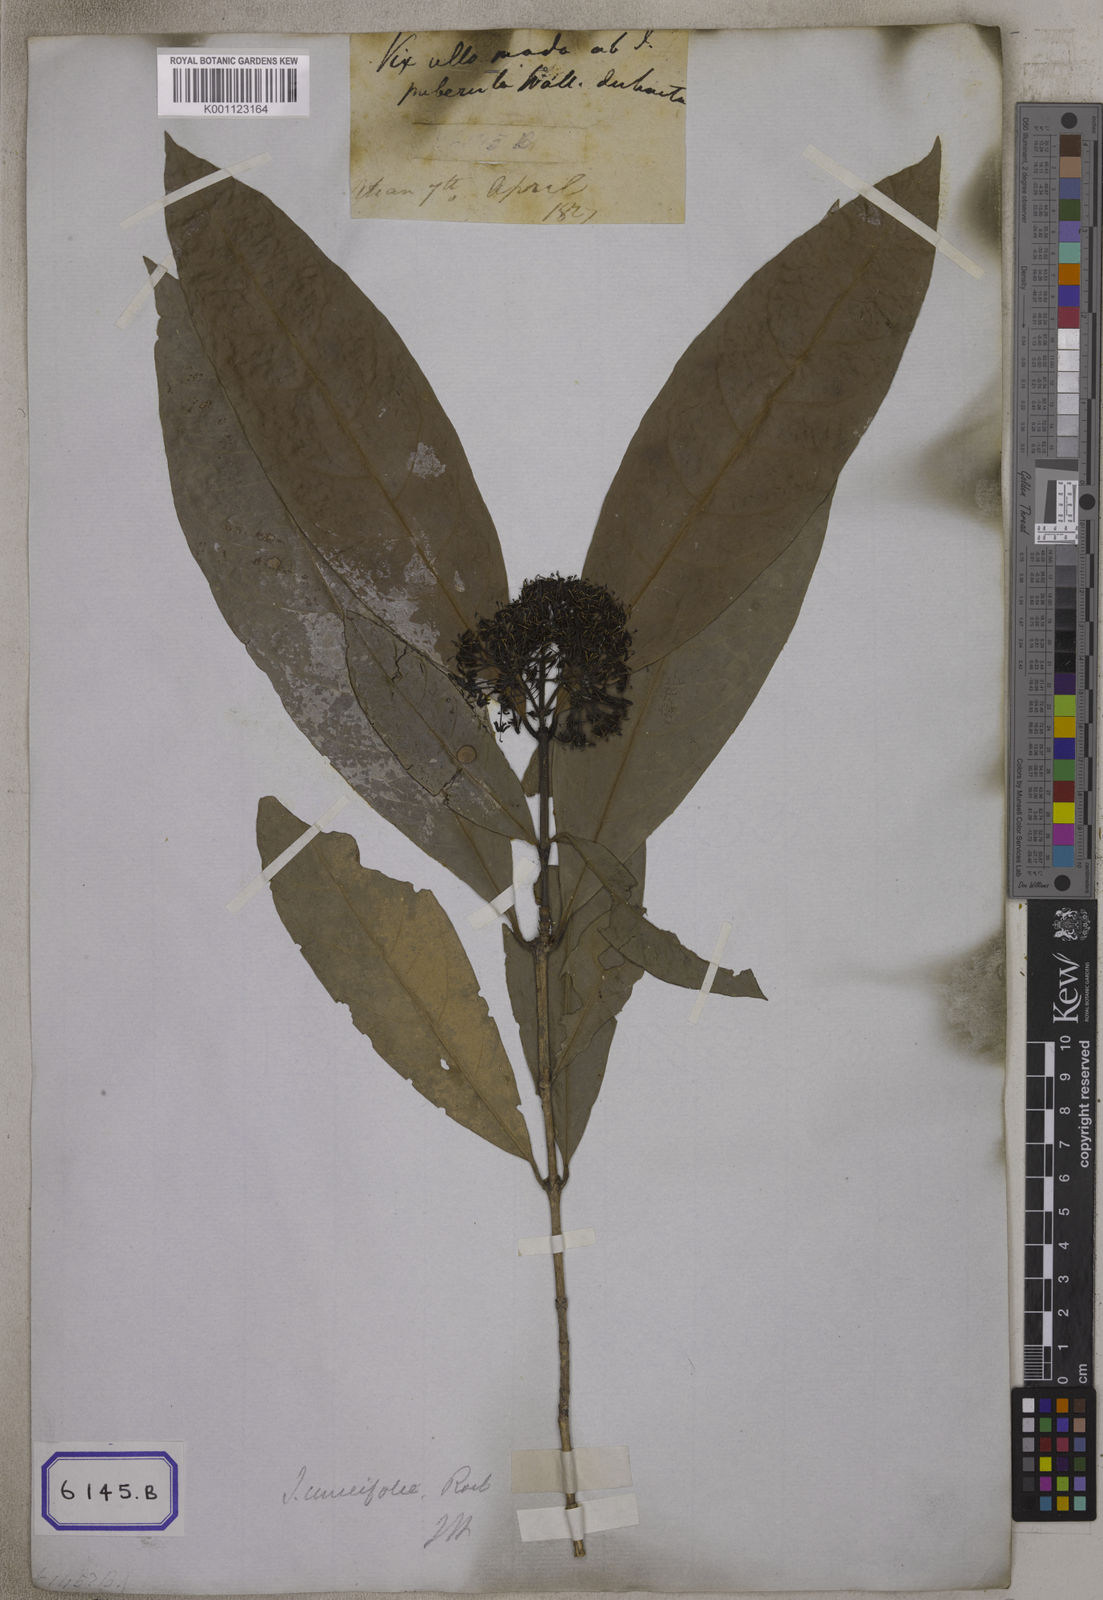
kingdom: Plantae
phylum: Tracheophyta
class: Magnoliopsida
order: Gentianales
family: Rubiaceae
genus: Ixora
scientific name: Ixora
